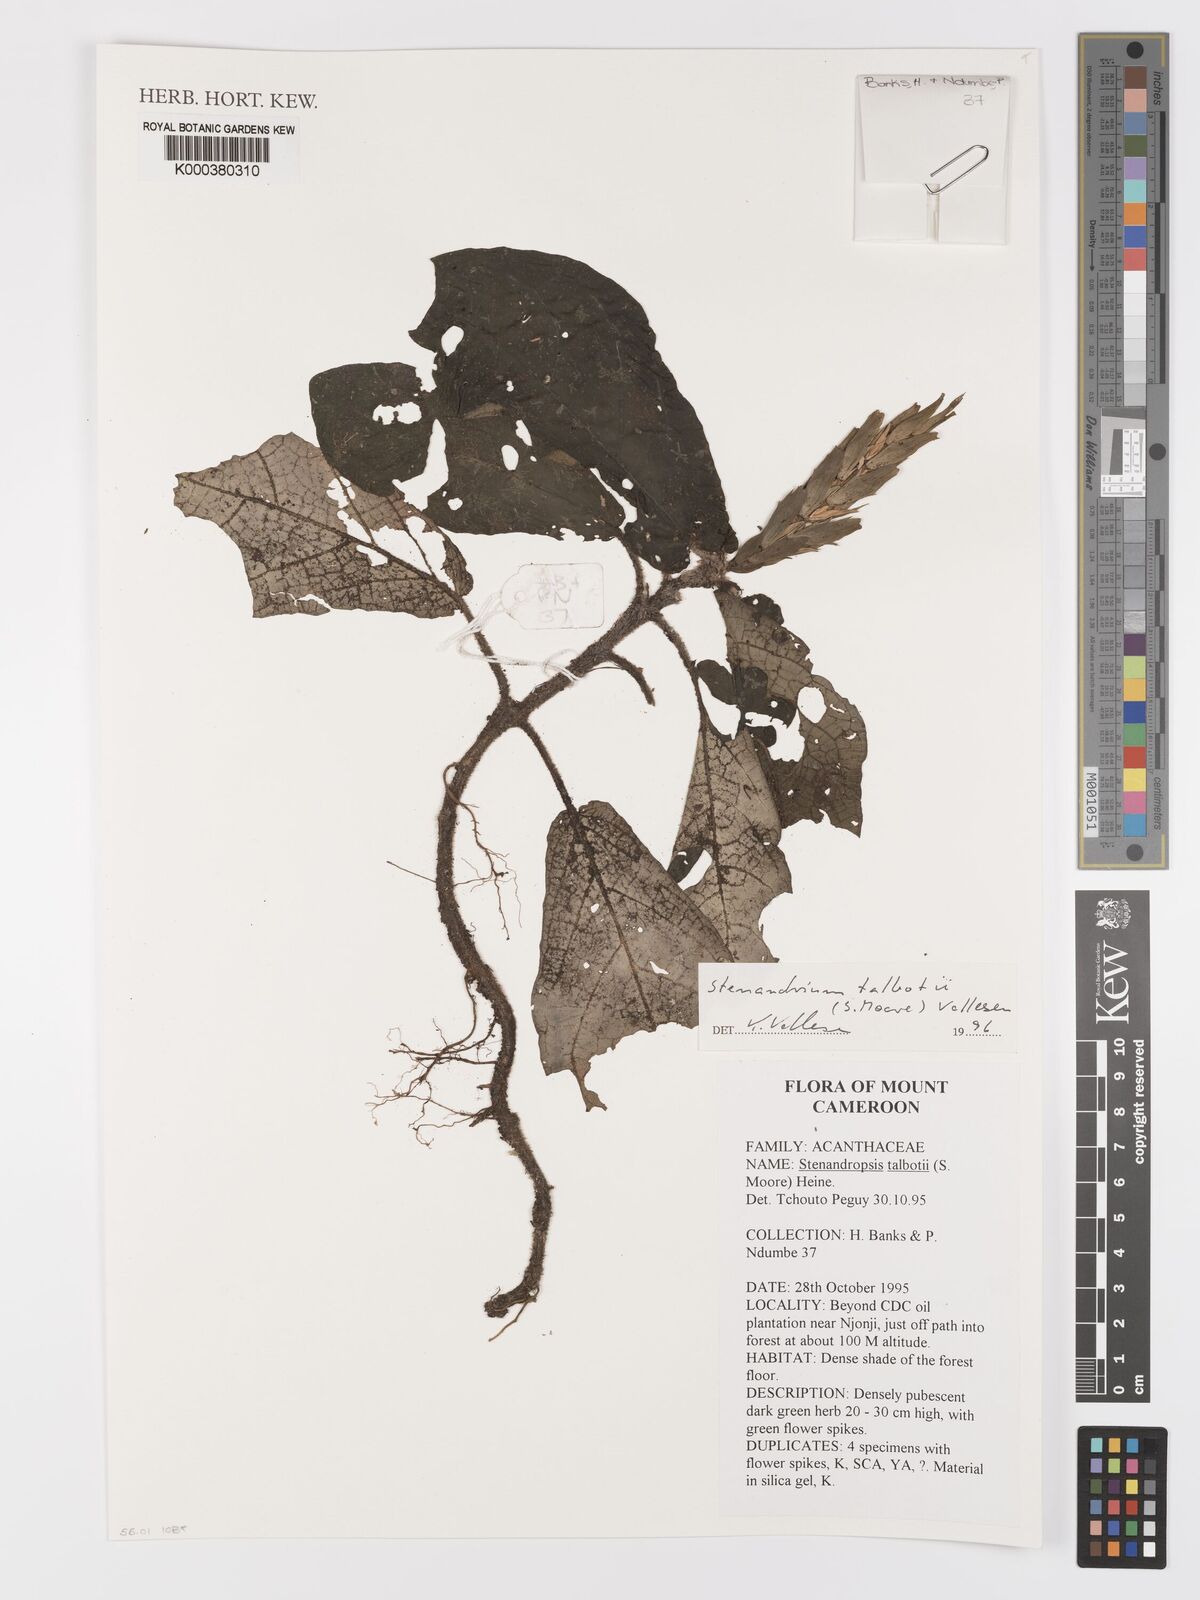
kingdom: Plantae
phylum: Tracheophyta
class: Magnoliopsida
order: Lamiales
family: Acanthaceae
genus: Stenandriopsis
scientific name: Stenandriopsis talbotii
